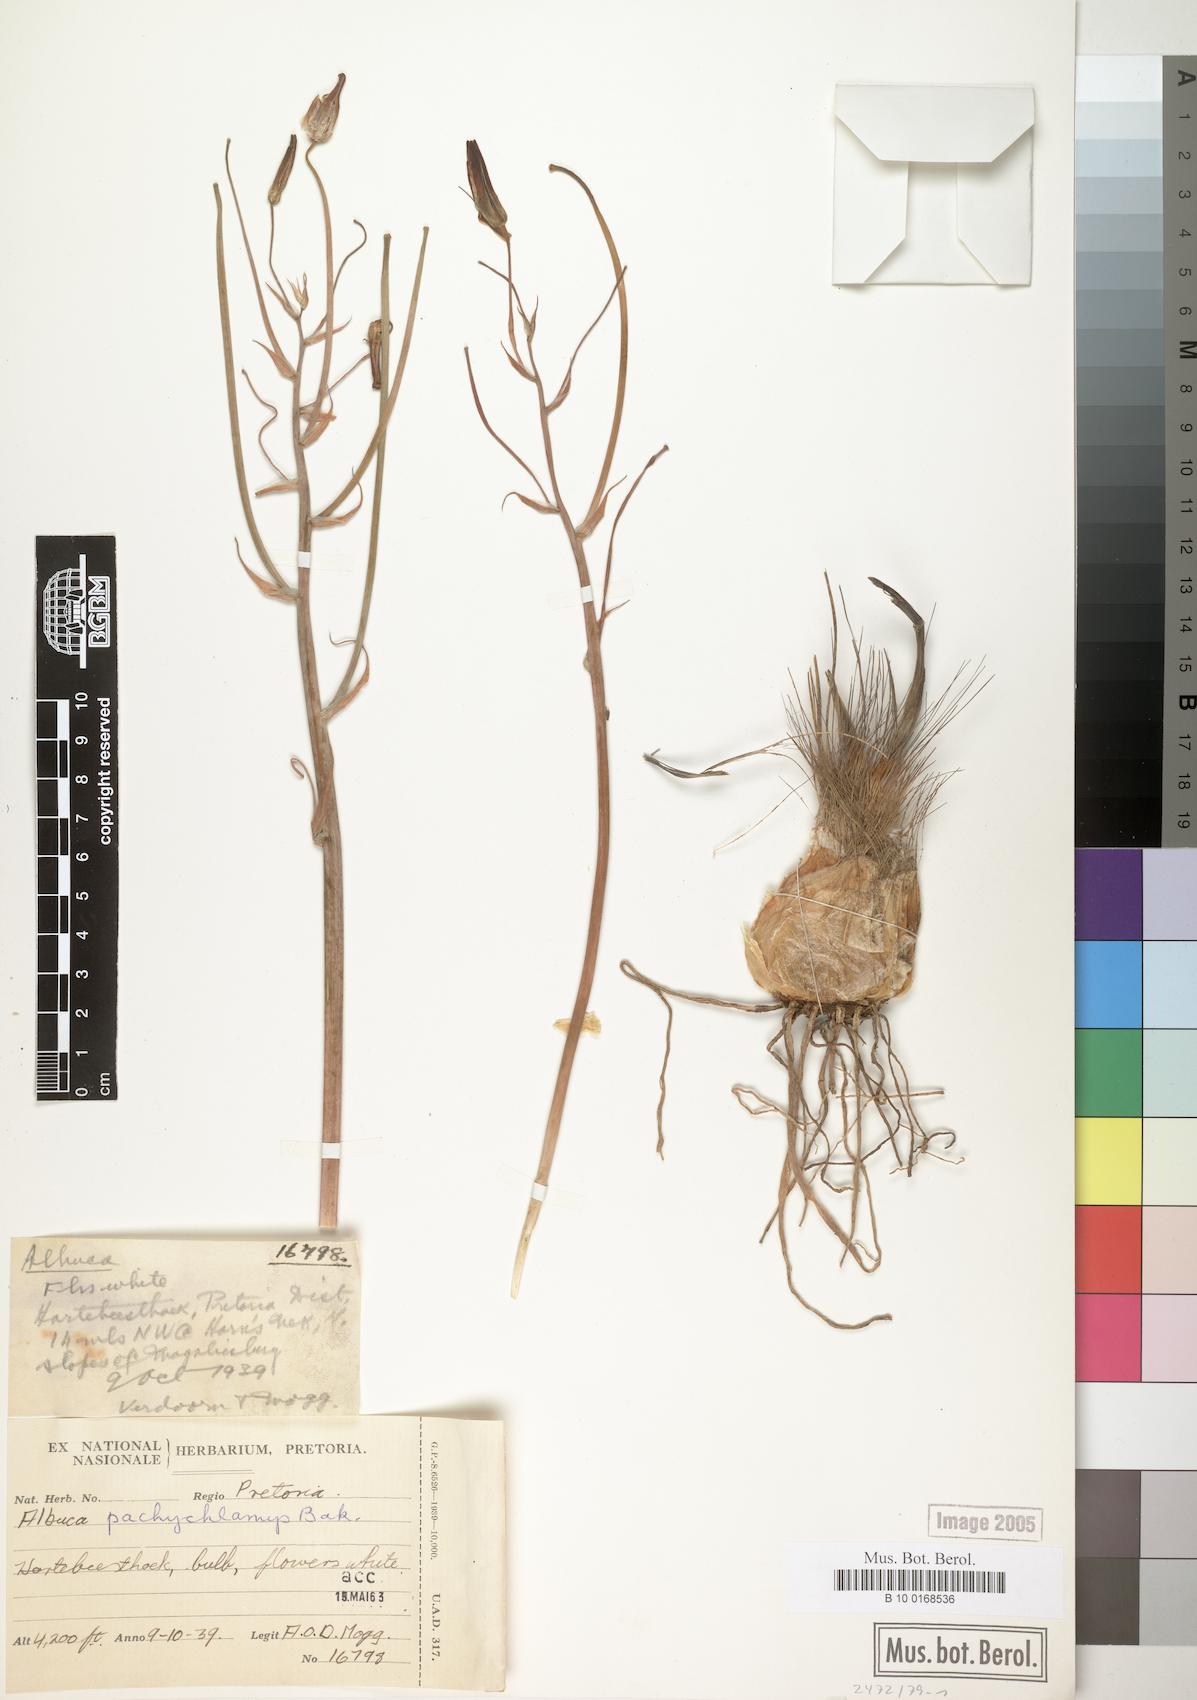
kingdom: Plantae
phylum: Tracheophyta
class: Liliopsida
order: Asparagales
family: Asparagaceae
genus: Albuca
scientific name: Albuca setosa
